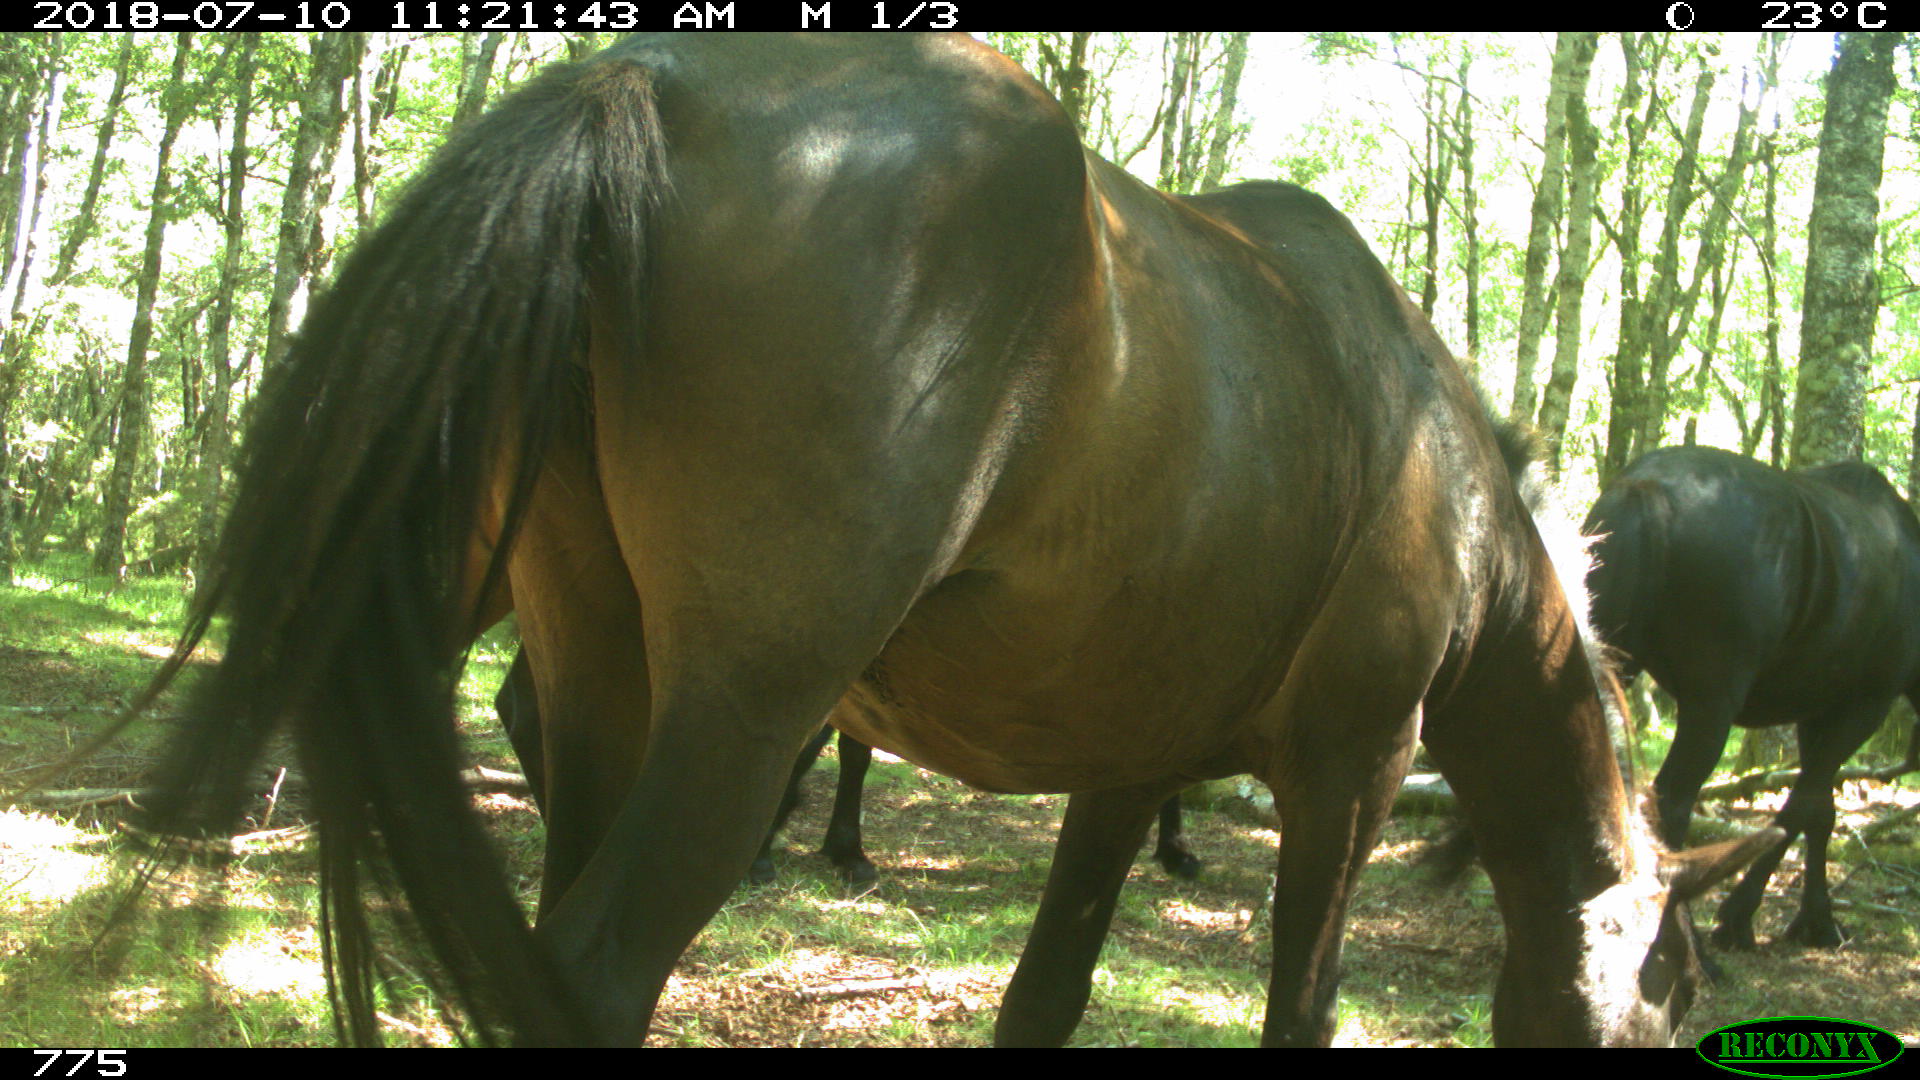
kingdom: Animalia
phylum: Chordata
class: Mammalia
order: Perissodactyla
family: Equidae
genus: Equus
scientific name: Equus caballus
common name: Horse
